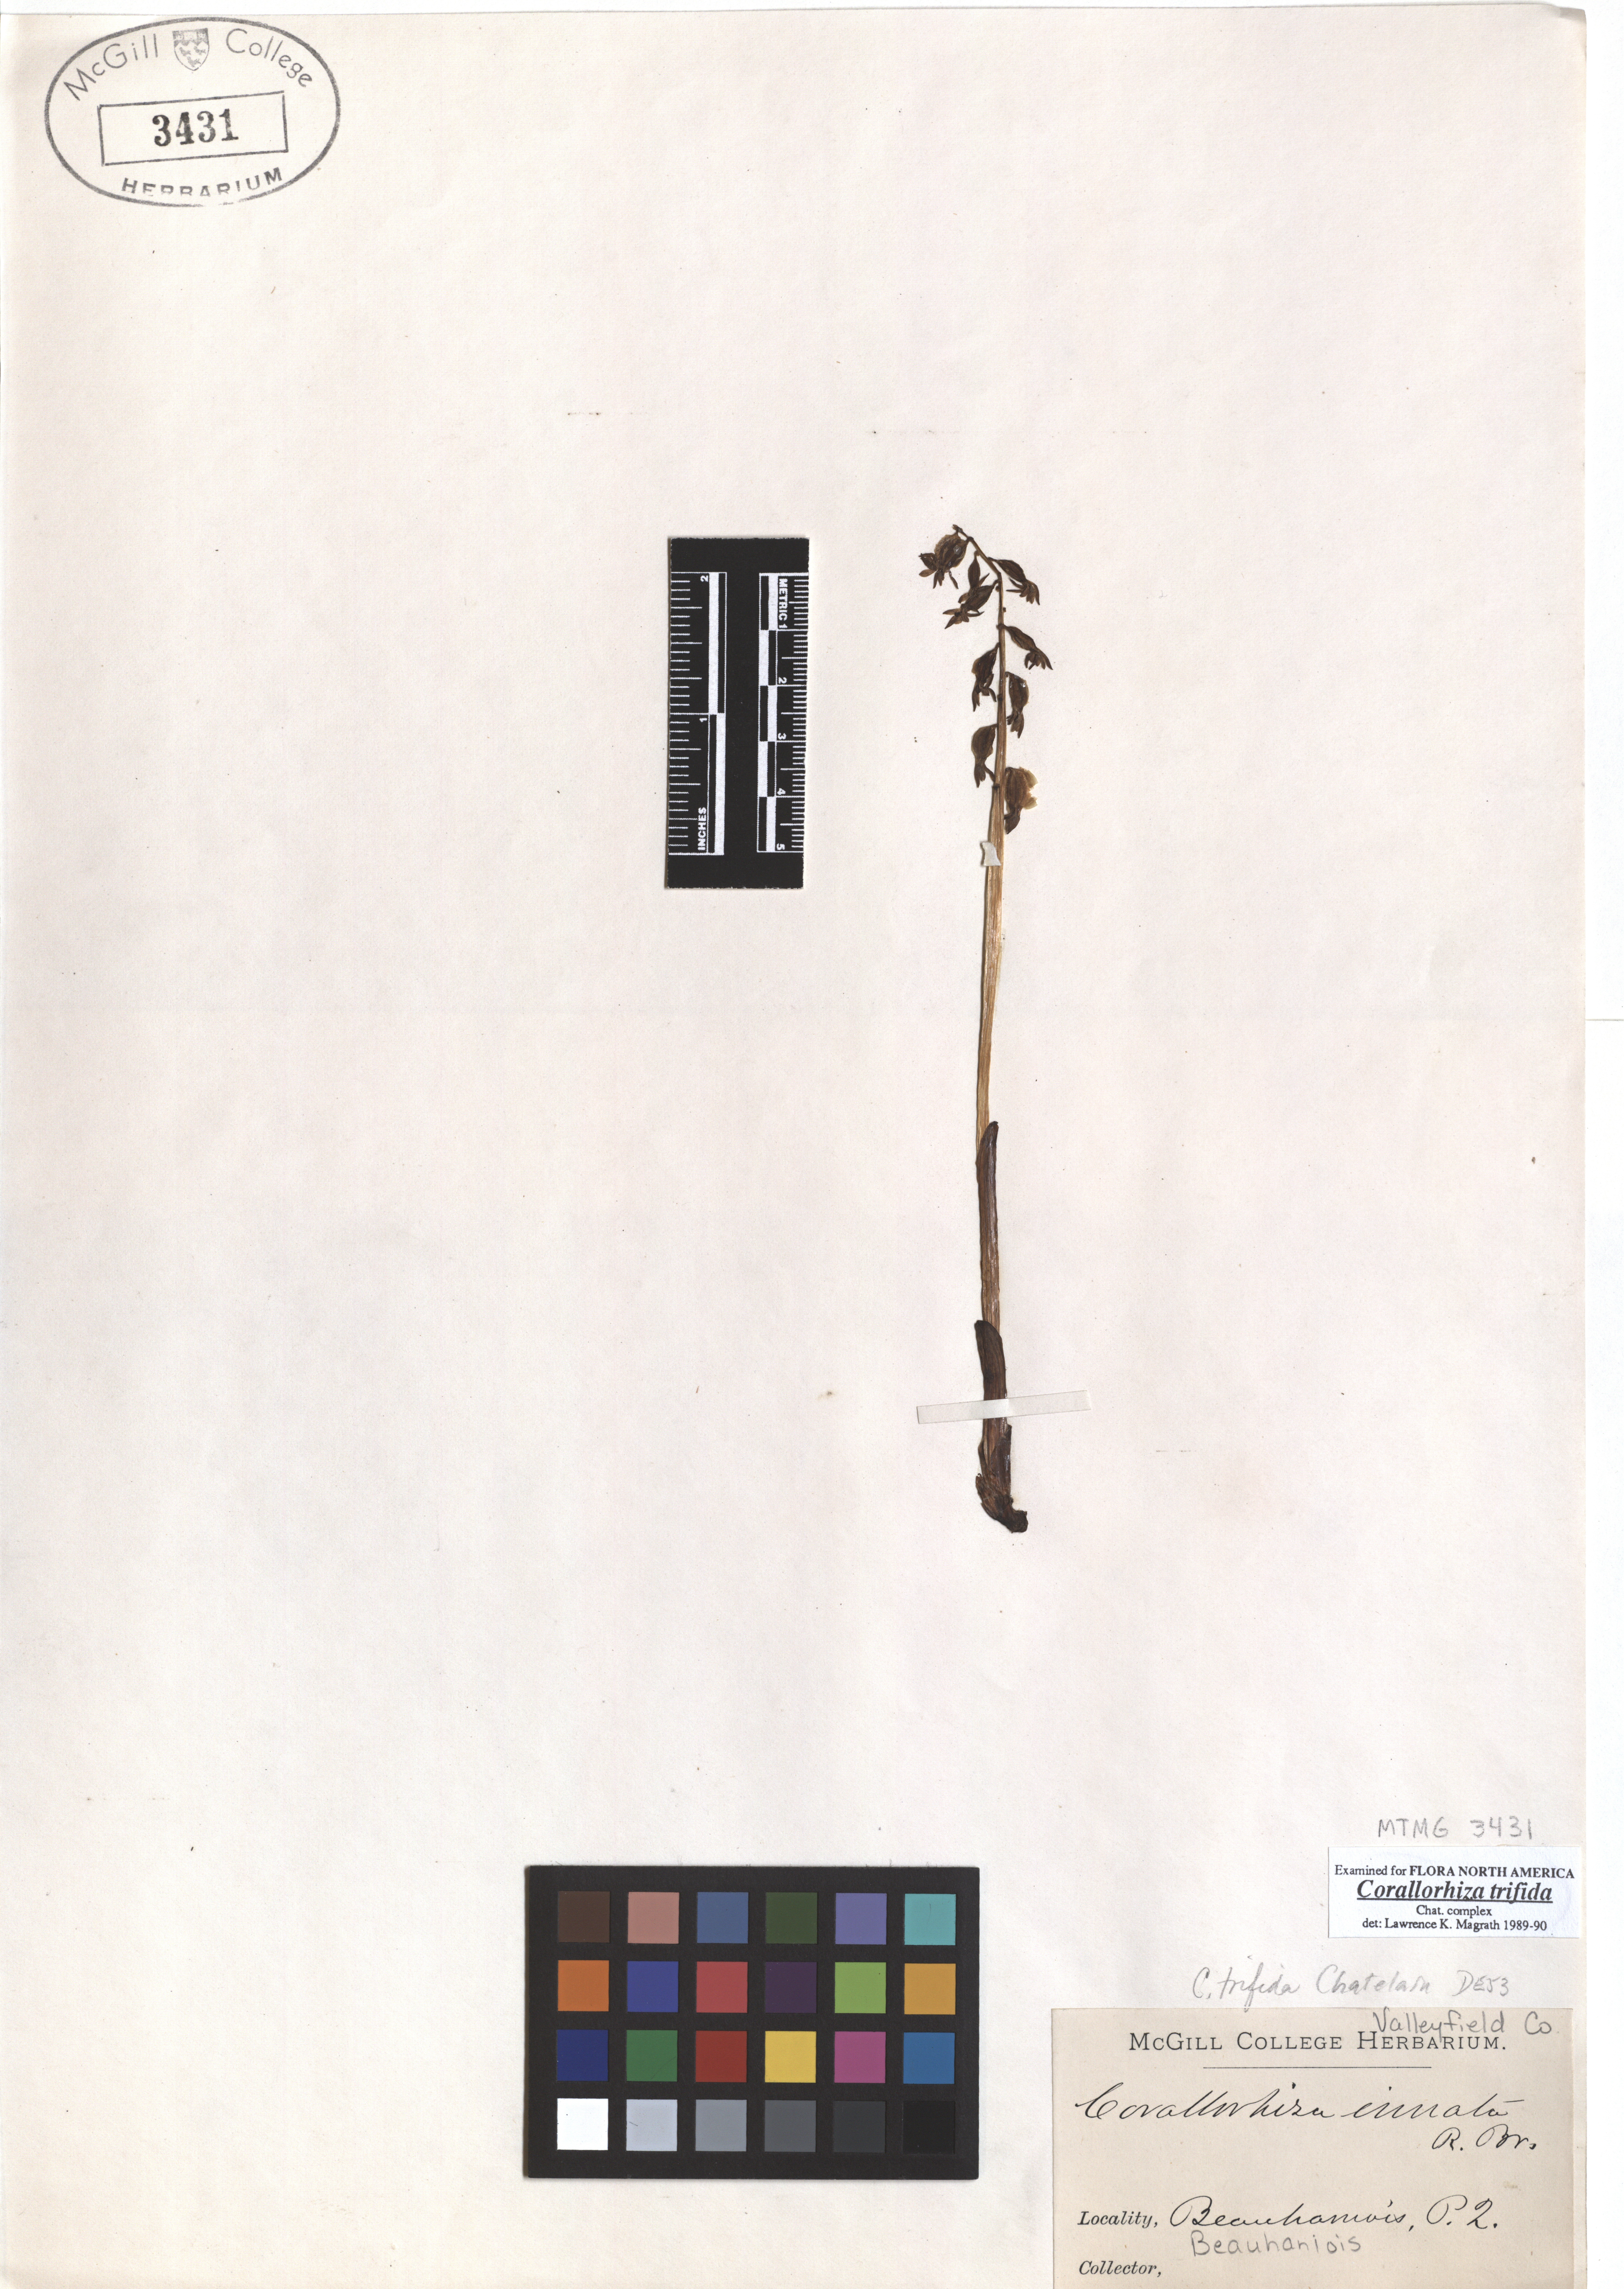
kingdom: Plantae
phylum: Tracheophyta
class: Liliopsida
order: Asparagales
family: Orchidaceae
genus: Corallorhiza
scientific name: Corallorhiza trifida
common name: Yellow coralroot
